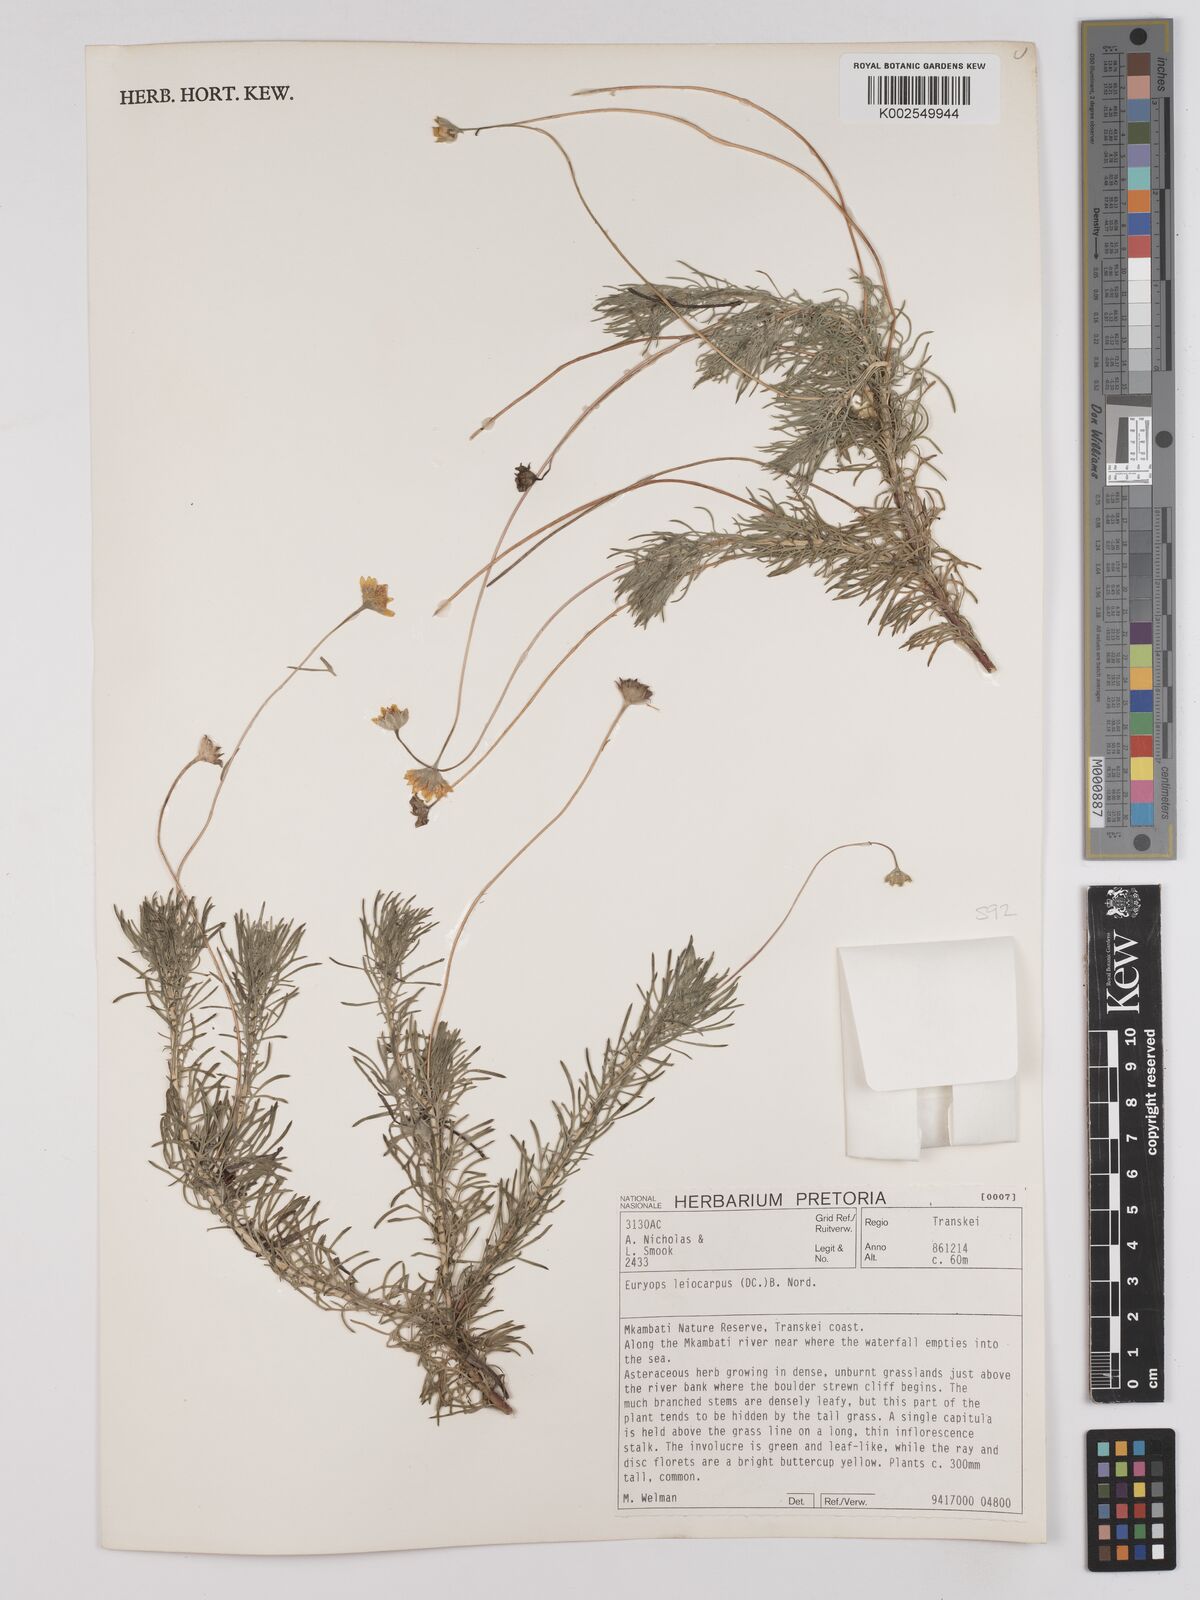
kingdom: Plantae
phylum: Tracheophyta
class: Magnoliopsida
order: Asterales
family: Asteraceae
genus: Euryops
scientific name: Euryops leiocarpus
